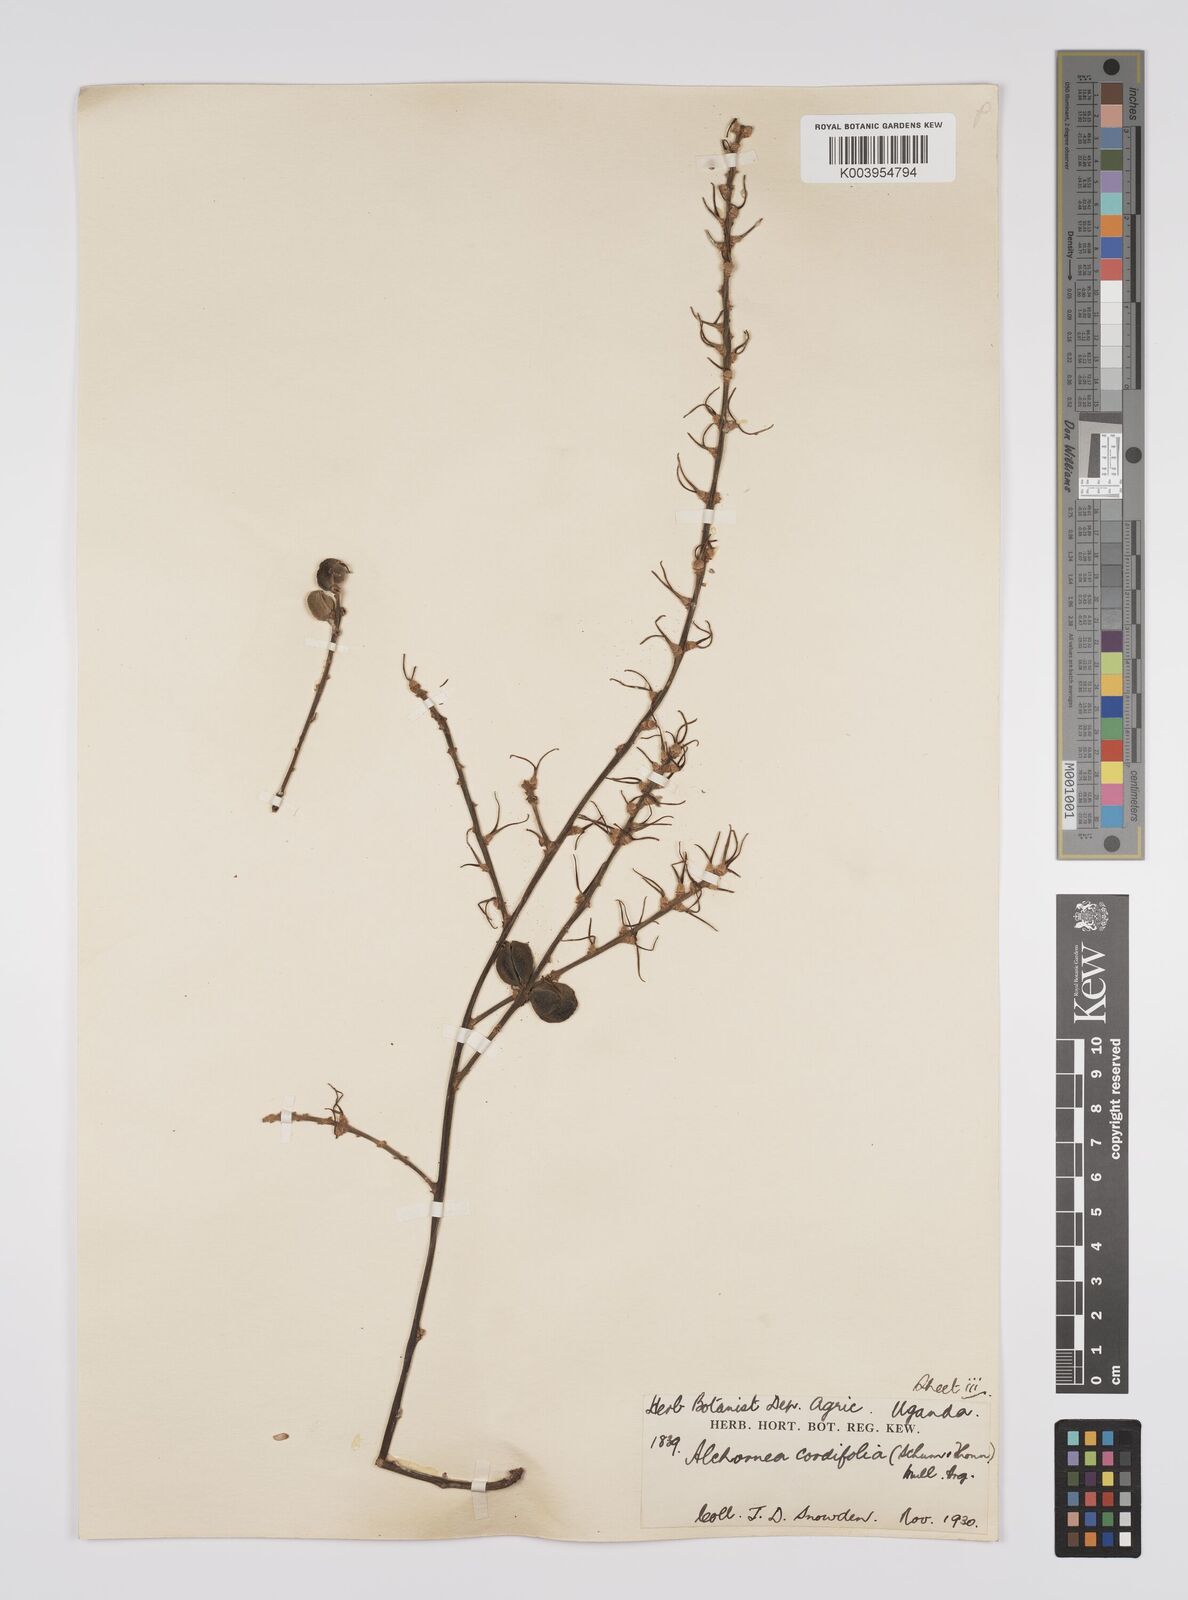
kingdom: Plantae
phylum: Tracheophyta
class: Magnoliopsida
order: Malpighiales
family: Euphorbiaceae
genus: Alchornea
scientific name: Alchornea cordifolia
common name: Christmasbush
